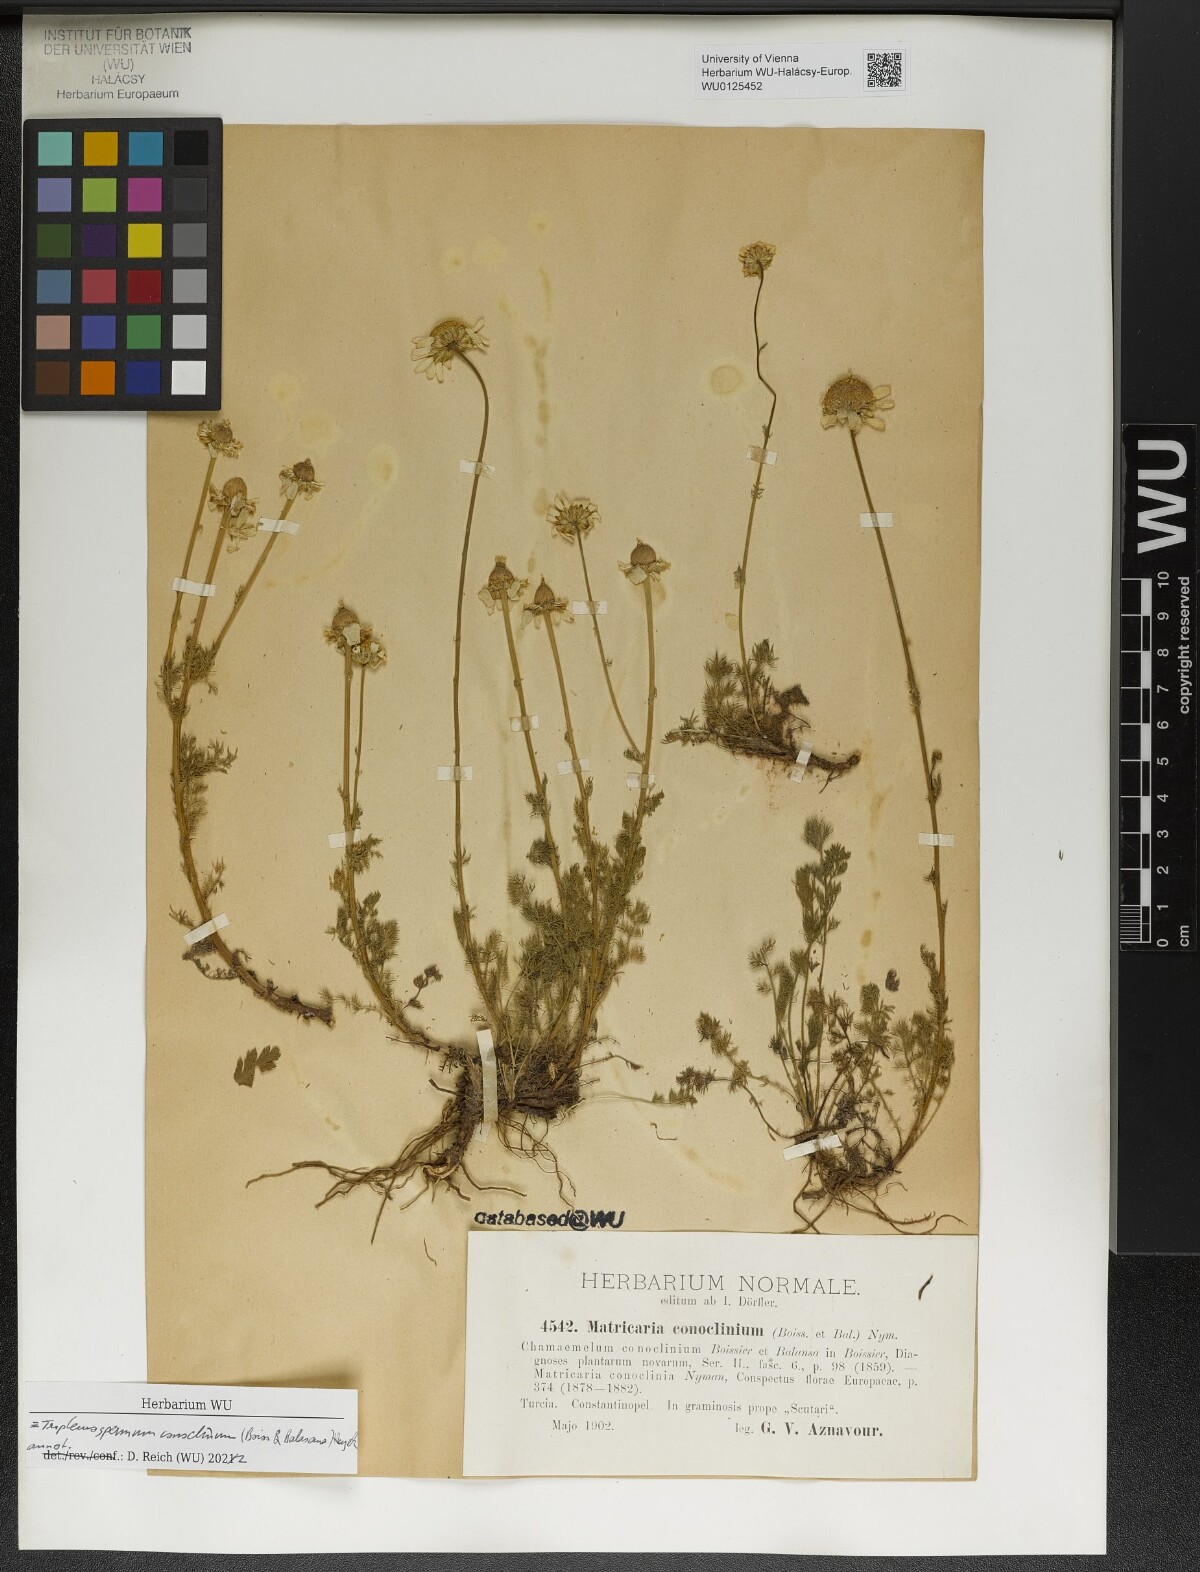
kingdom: Plantae
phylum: Tracheophyta
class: Magnoliopsida
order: Asterales
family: Asteraceae
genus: Tripleurospermum
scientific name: Tripleurospermum conoclinium
